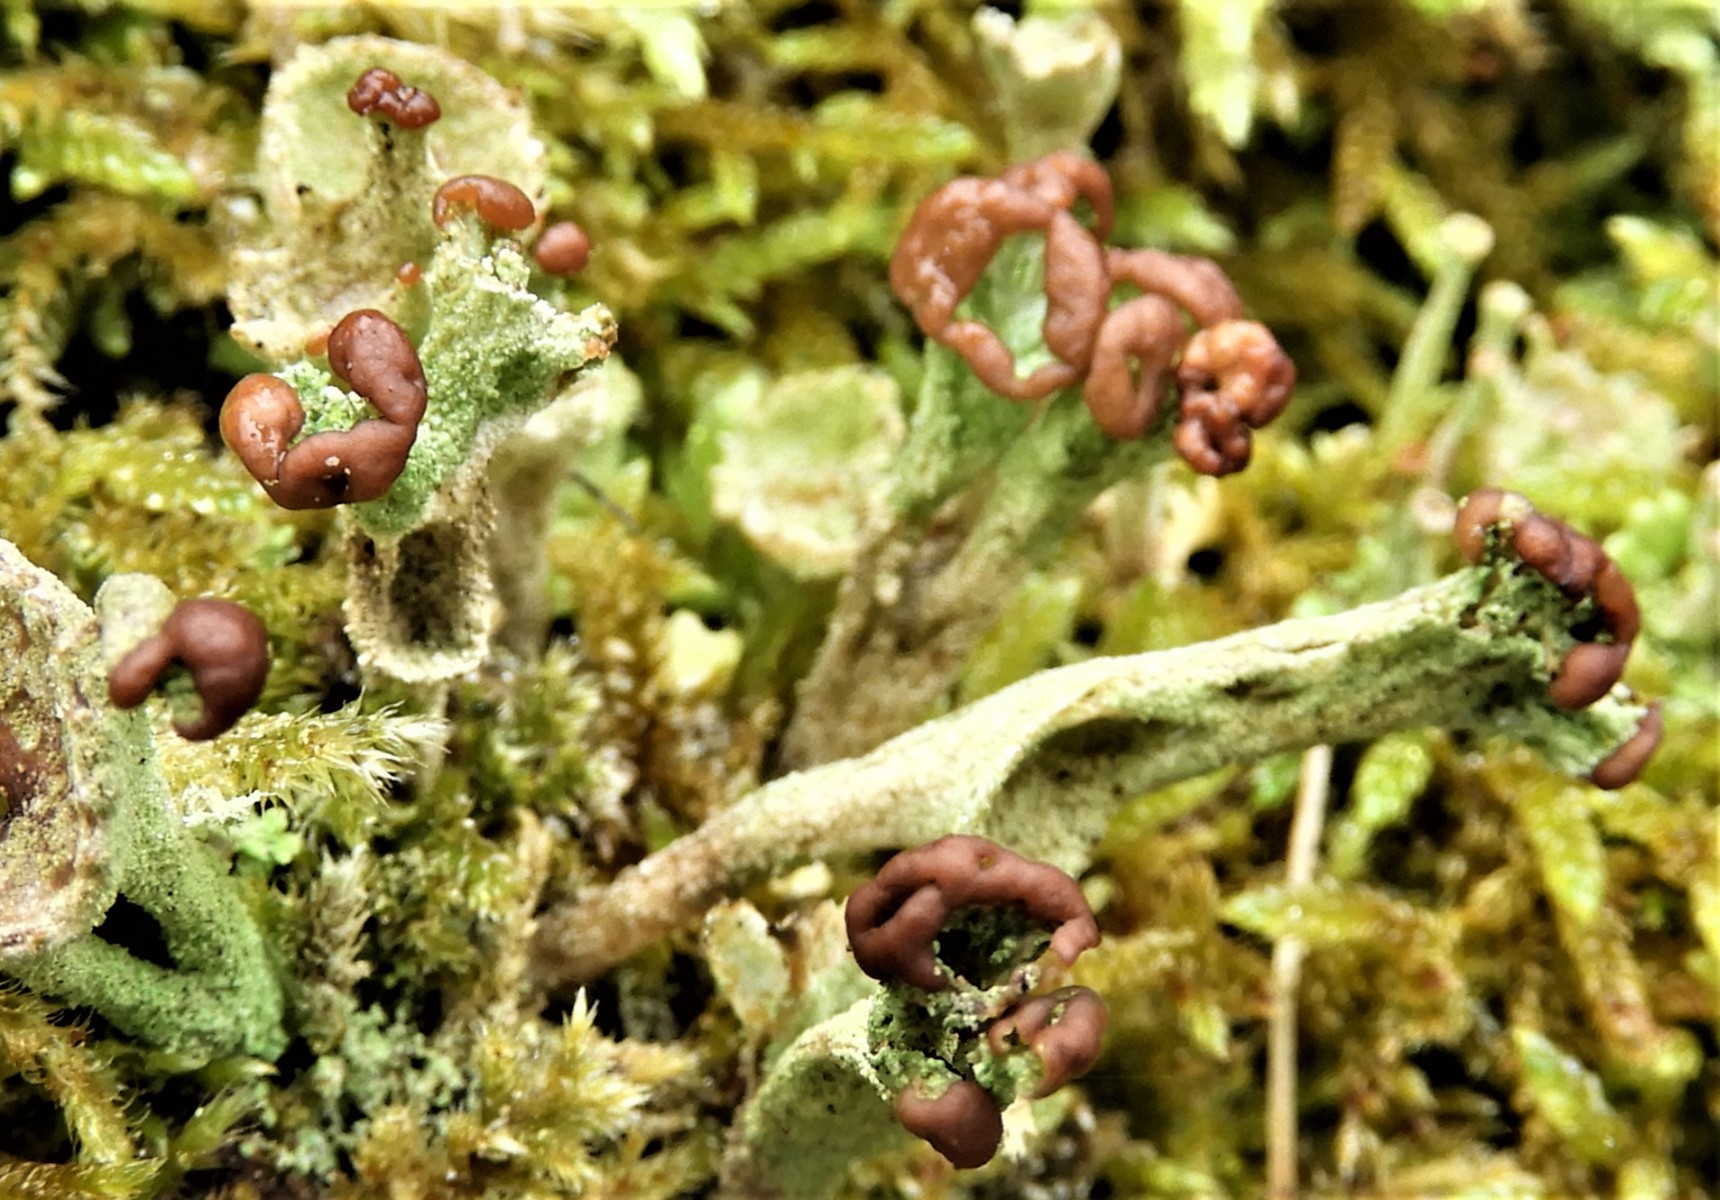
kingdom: Fungi
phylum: Ascomycota
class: Lecanoromycetes
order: Lecanorales
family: Cladoniaceae
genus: Cladonia
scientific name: Cladonia ramulosa
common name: kliddet bægerlav
